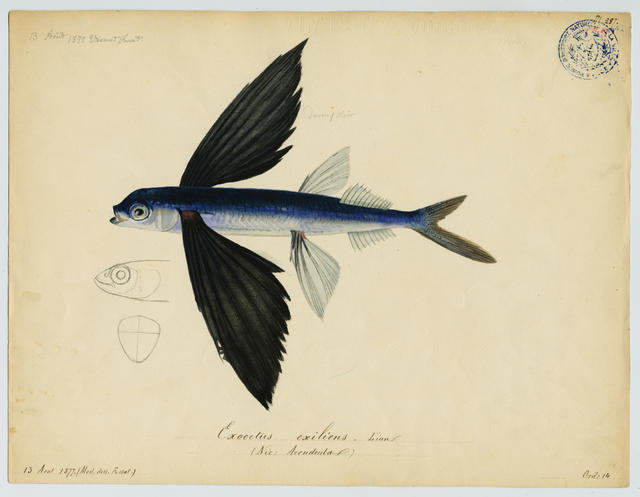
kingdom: Animalia
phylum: Chordata
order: Beloniformes
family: Exocoetidae
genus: Cheilopogon
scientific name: Cheilopogon heterurus
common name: Mediterranean flyingfish
